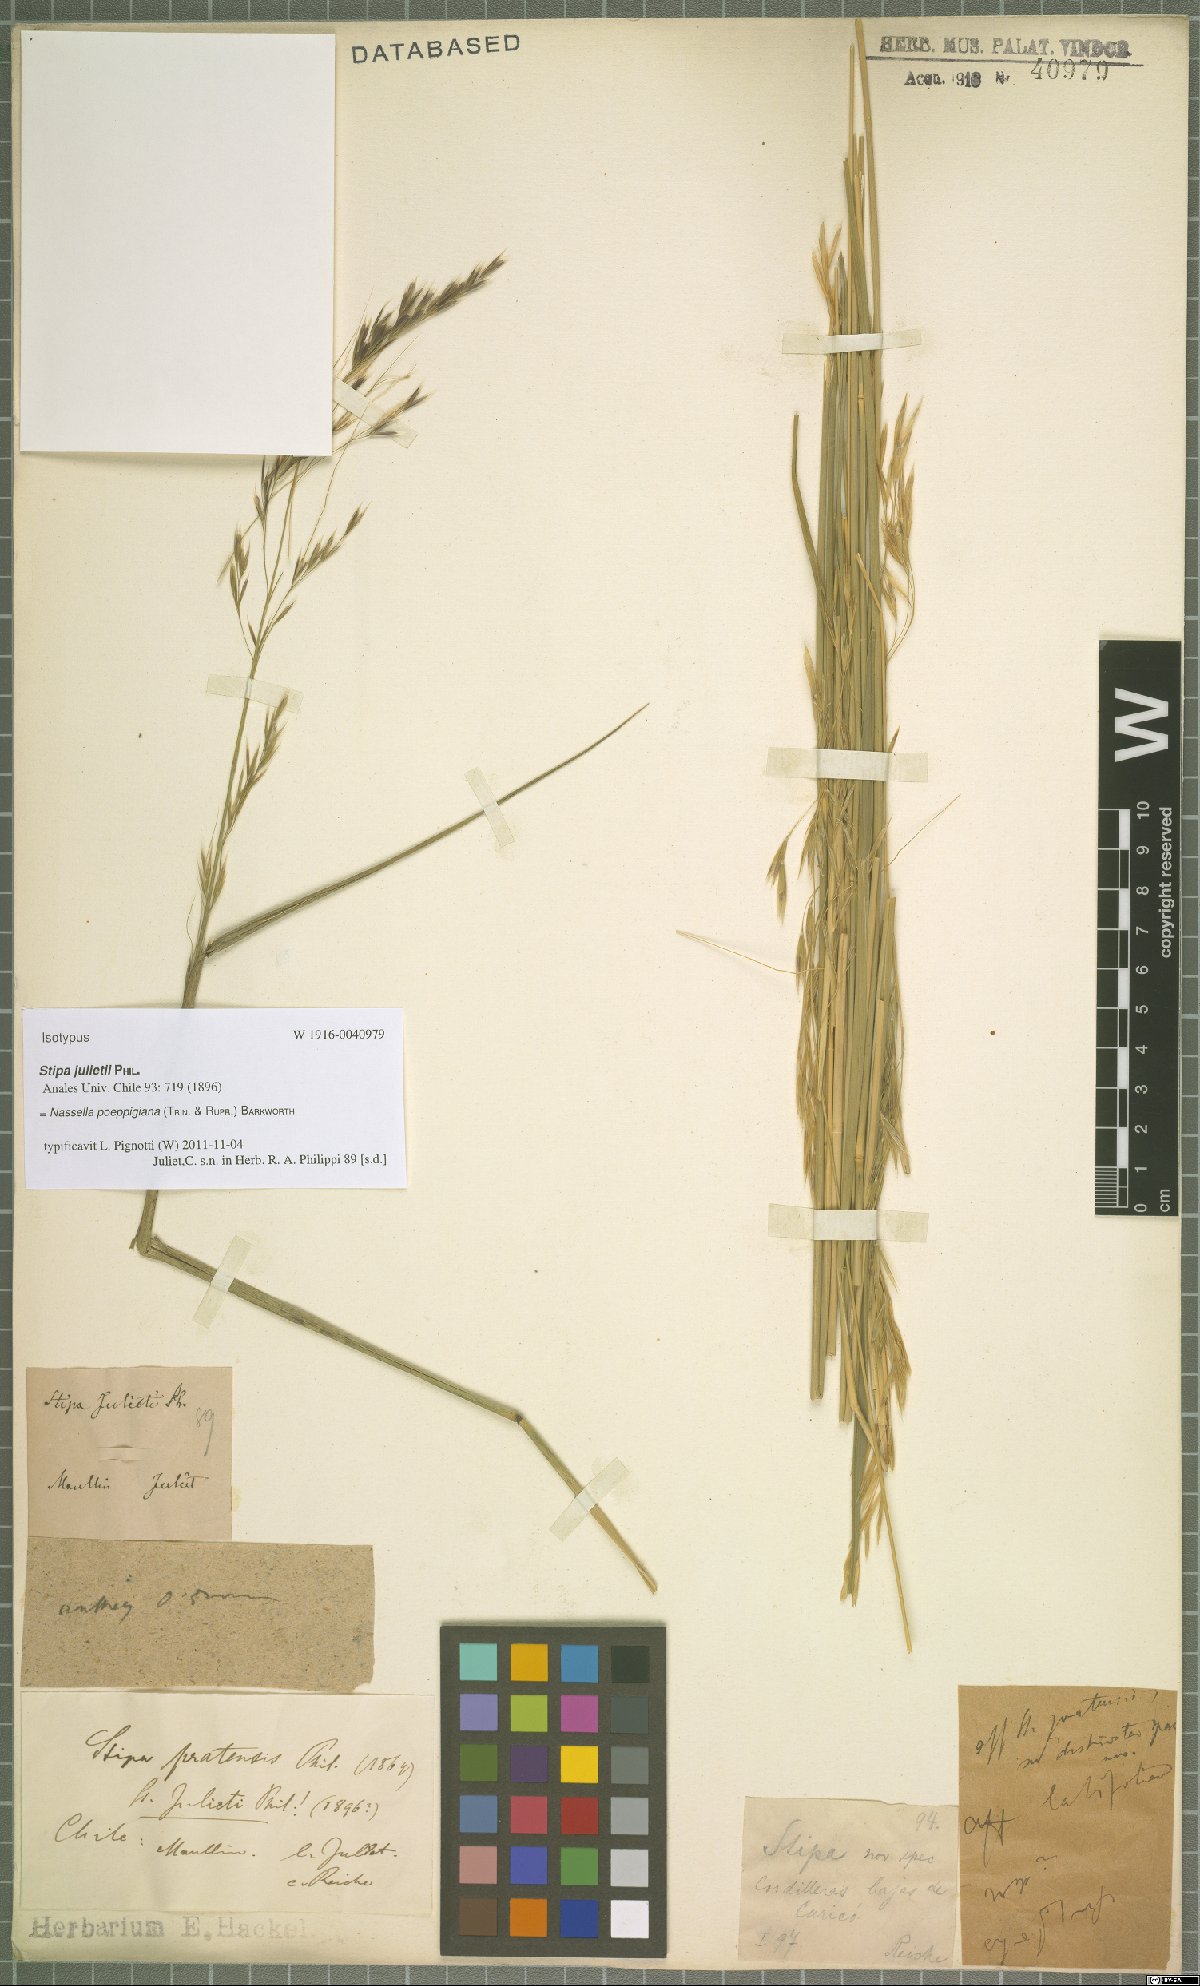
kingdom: Plantae
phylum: Tracheophyta
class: Liliopsida
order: Poales
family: Poaceae
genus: Nassella
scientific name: Nassella poeppigiana
